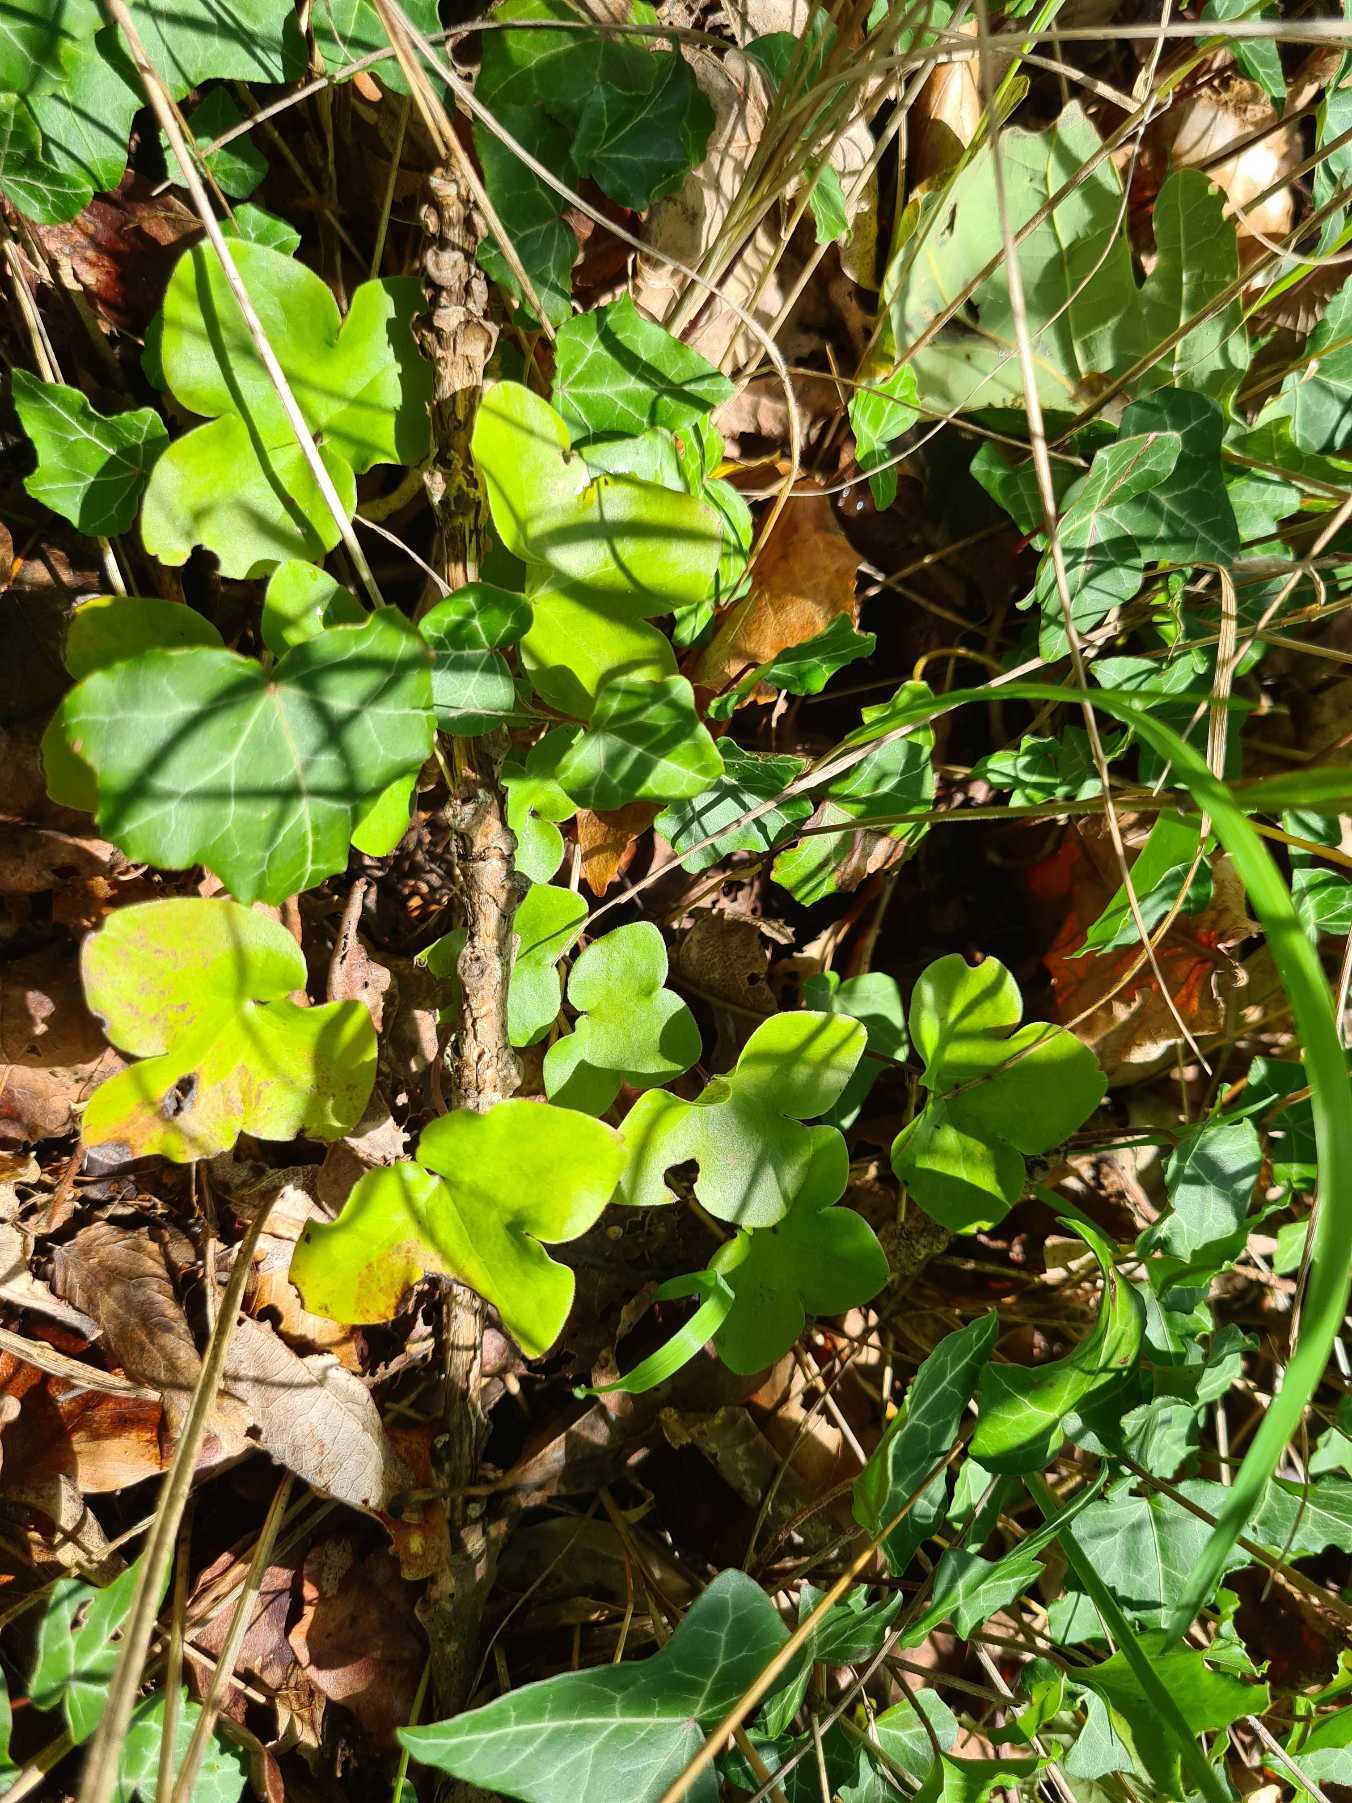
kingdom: Plantae
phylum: Tracheophyta
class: Magnoliopsida
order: Ranunculales
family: Ranunculaceae
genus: Hepatica
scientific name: Hepatica nobilis
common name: Blå anemone
